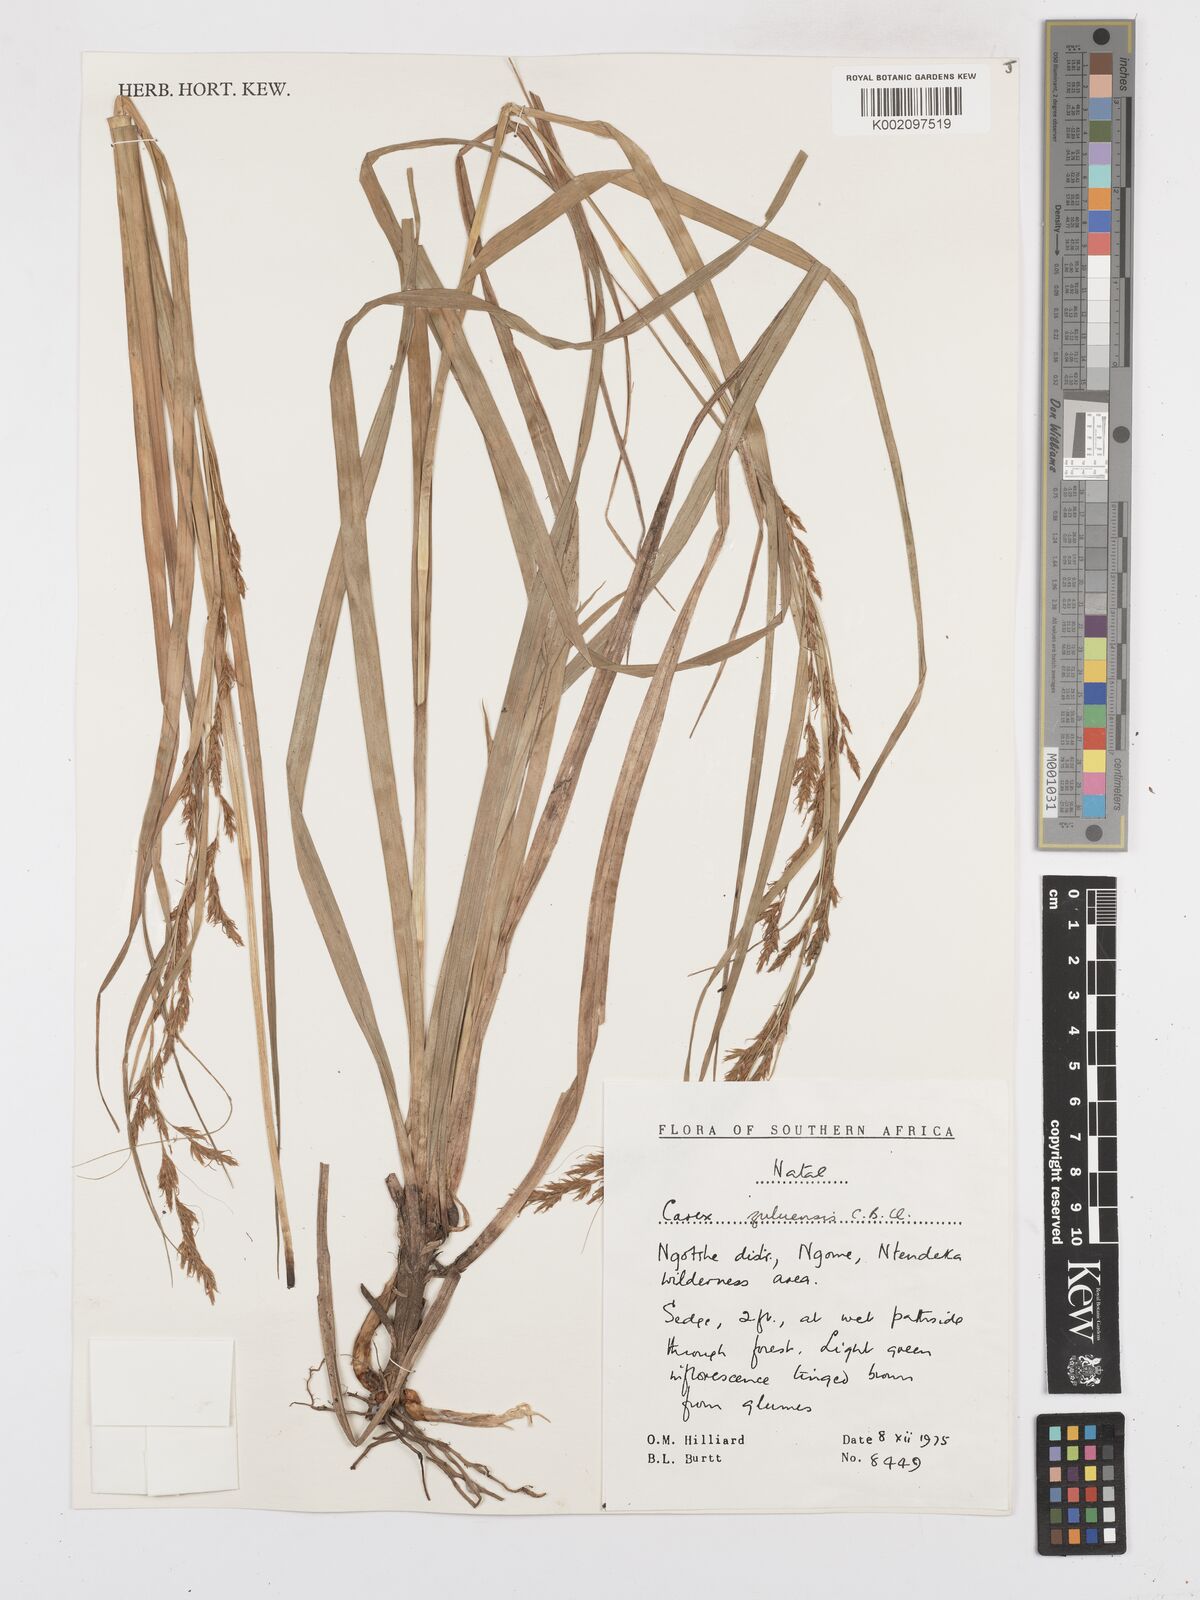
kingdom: Plantae
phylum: Tracheophyta
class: Liliopsida
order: Poales
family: Cyperaceae
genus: Carex
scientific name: Carex steudneri
